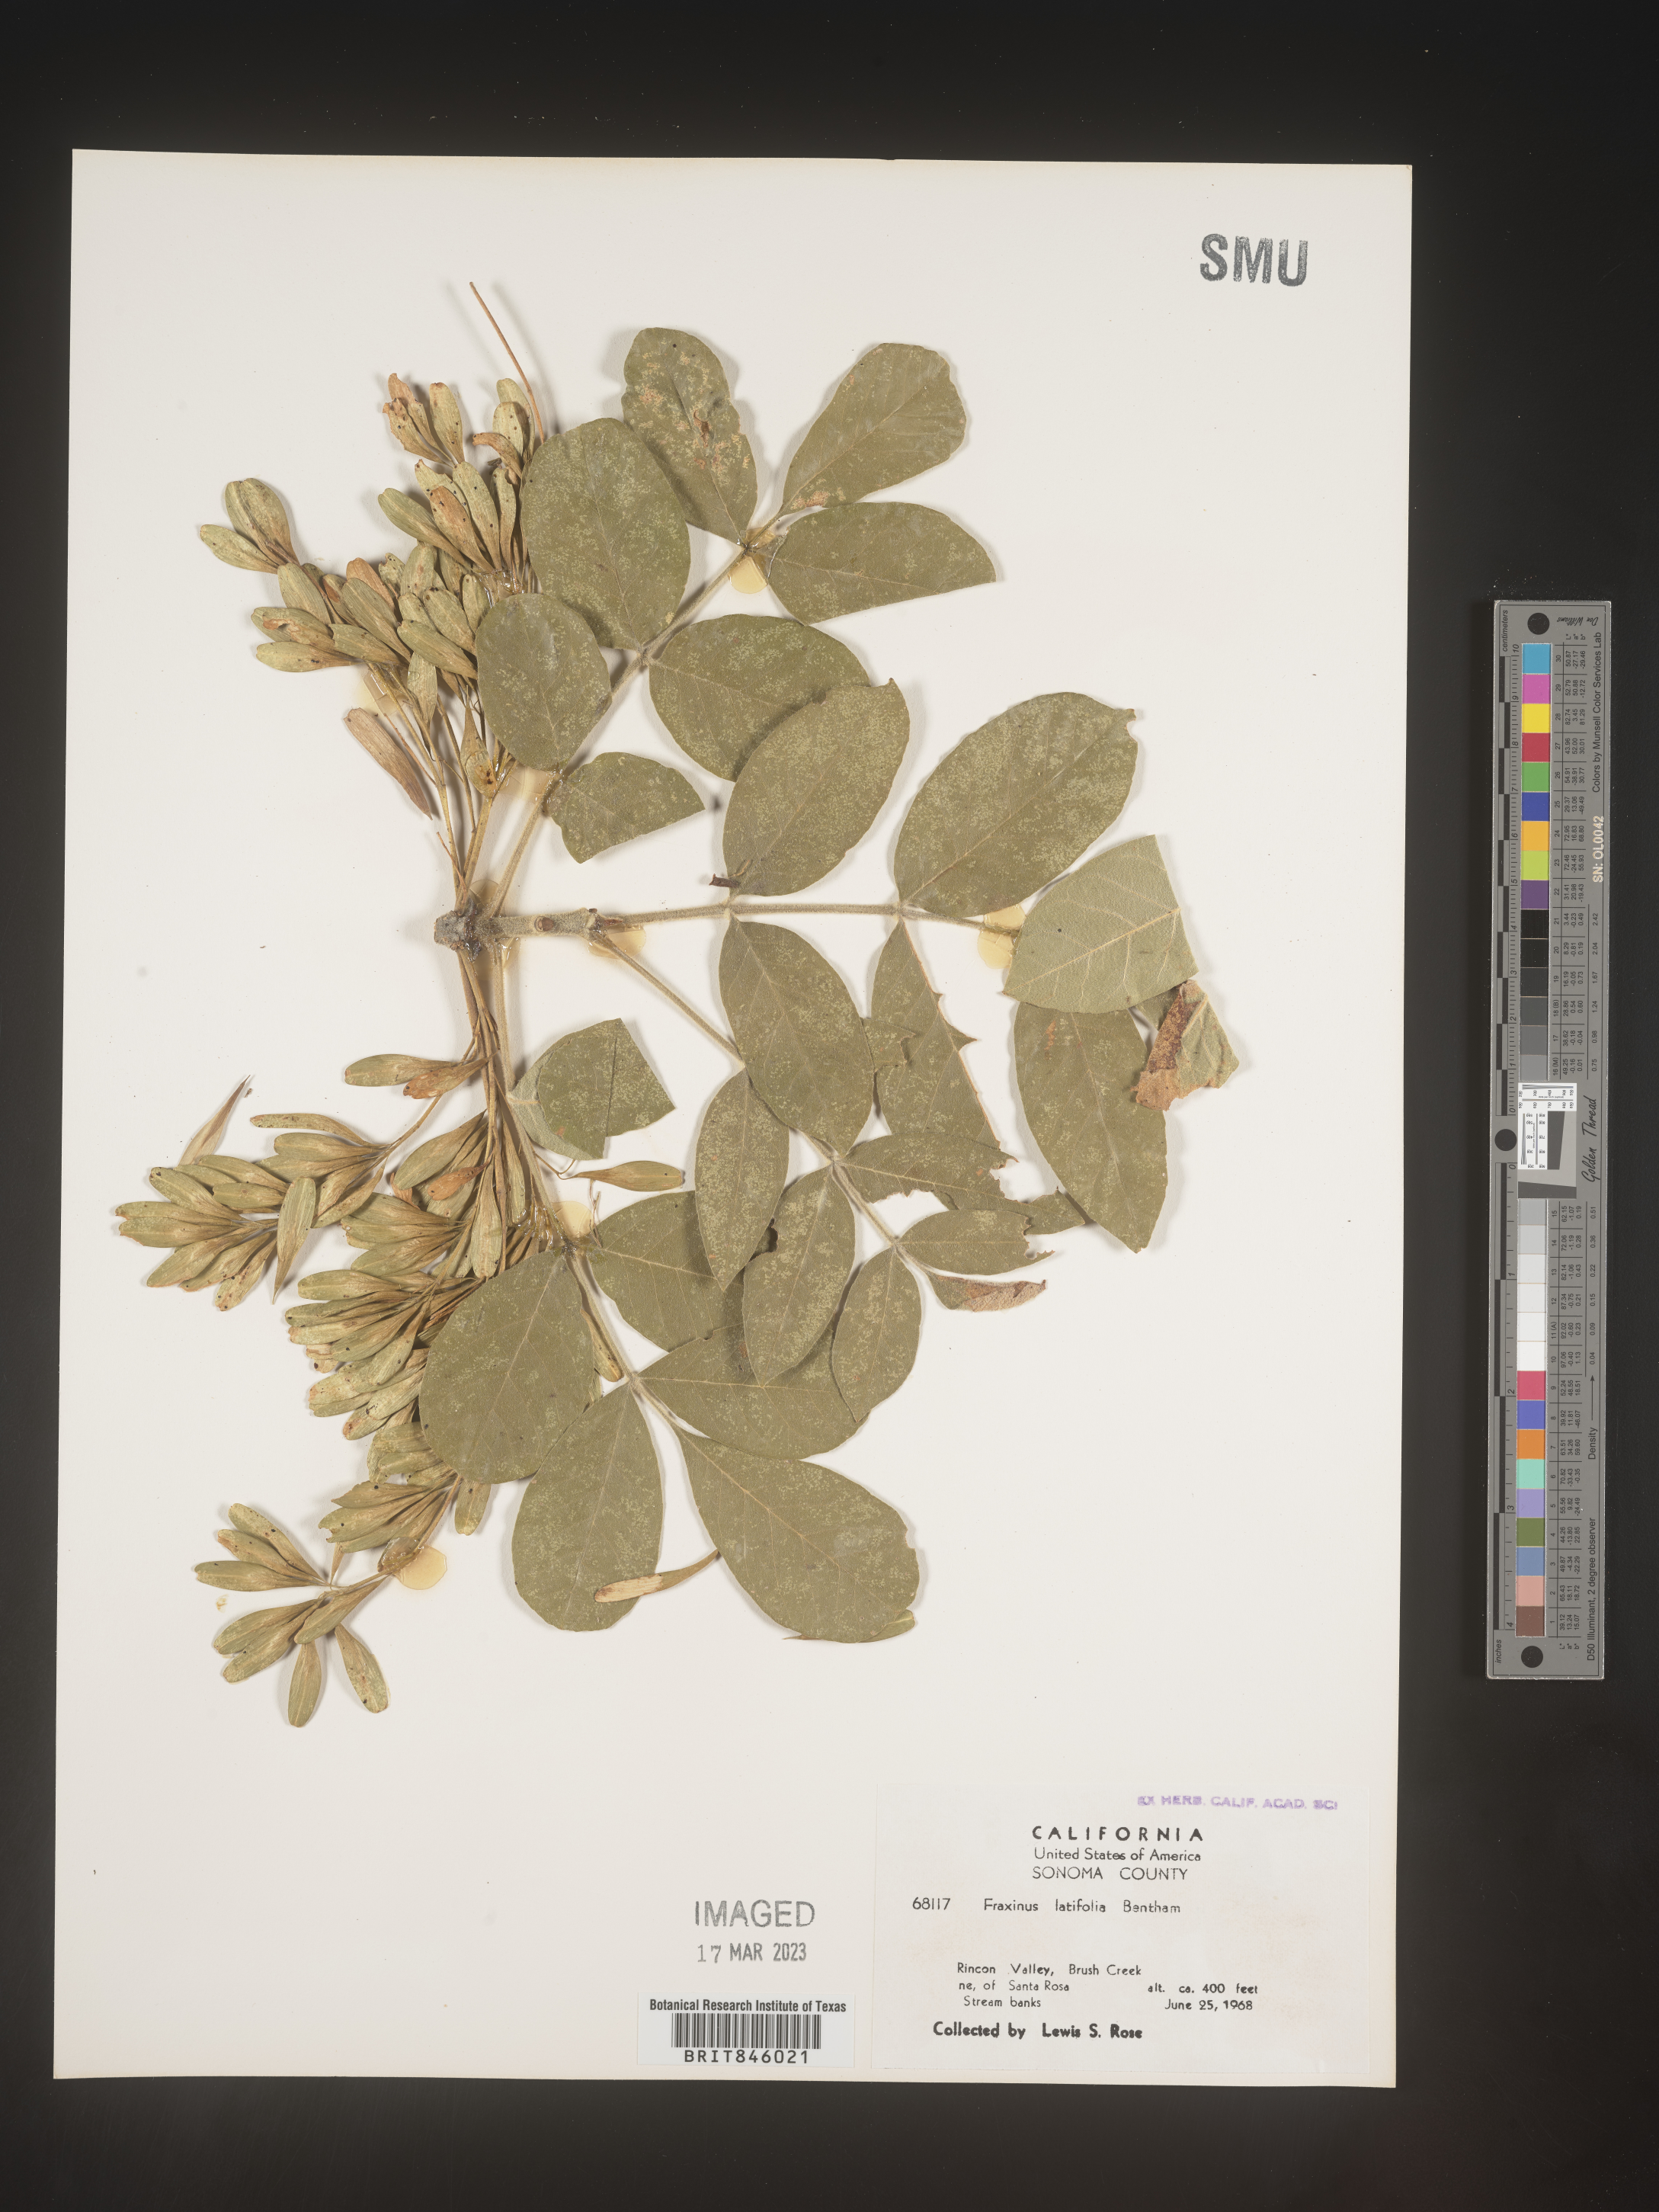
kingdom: Plantae
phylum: Tracheophyta
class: Magnoliopsida
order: Lamiales
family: Oleaceae
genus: Fraxinus
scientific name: Fraxinus latifolia
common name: Oregon ash
